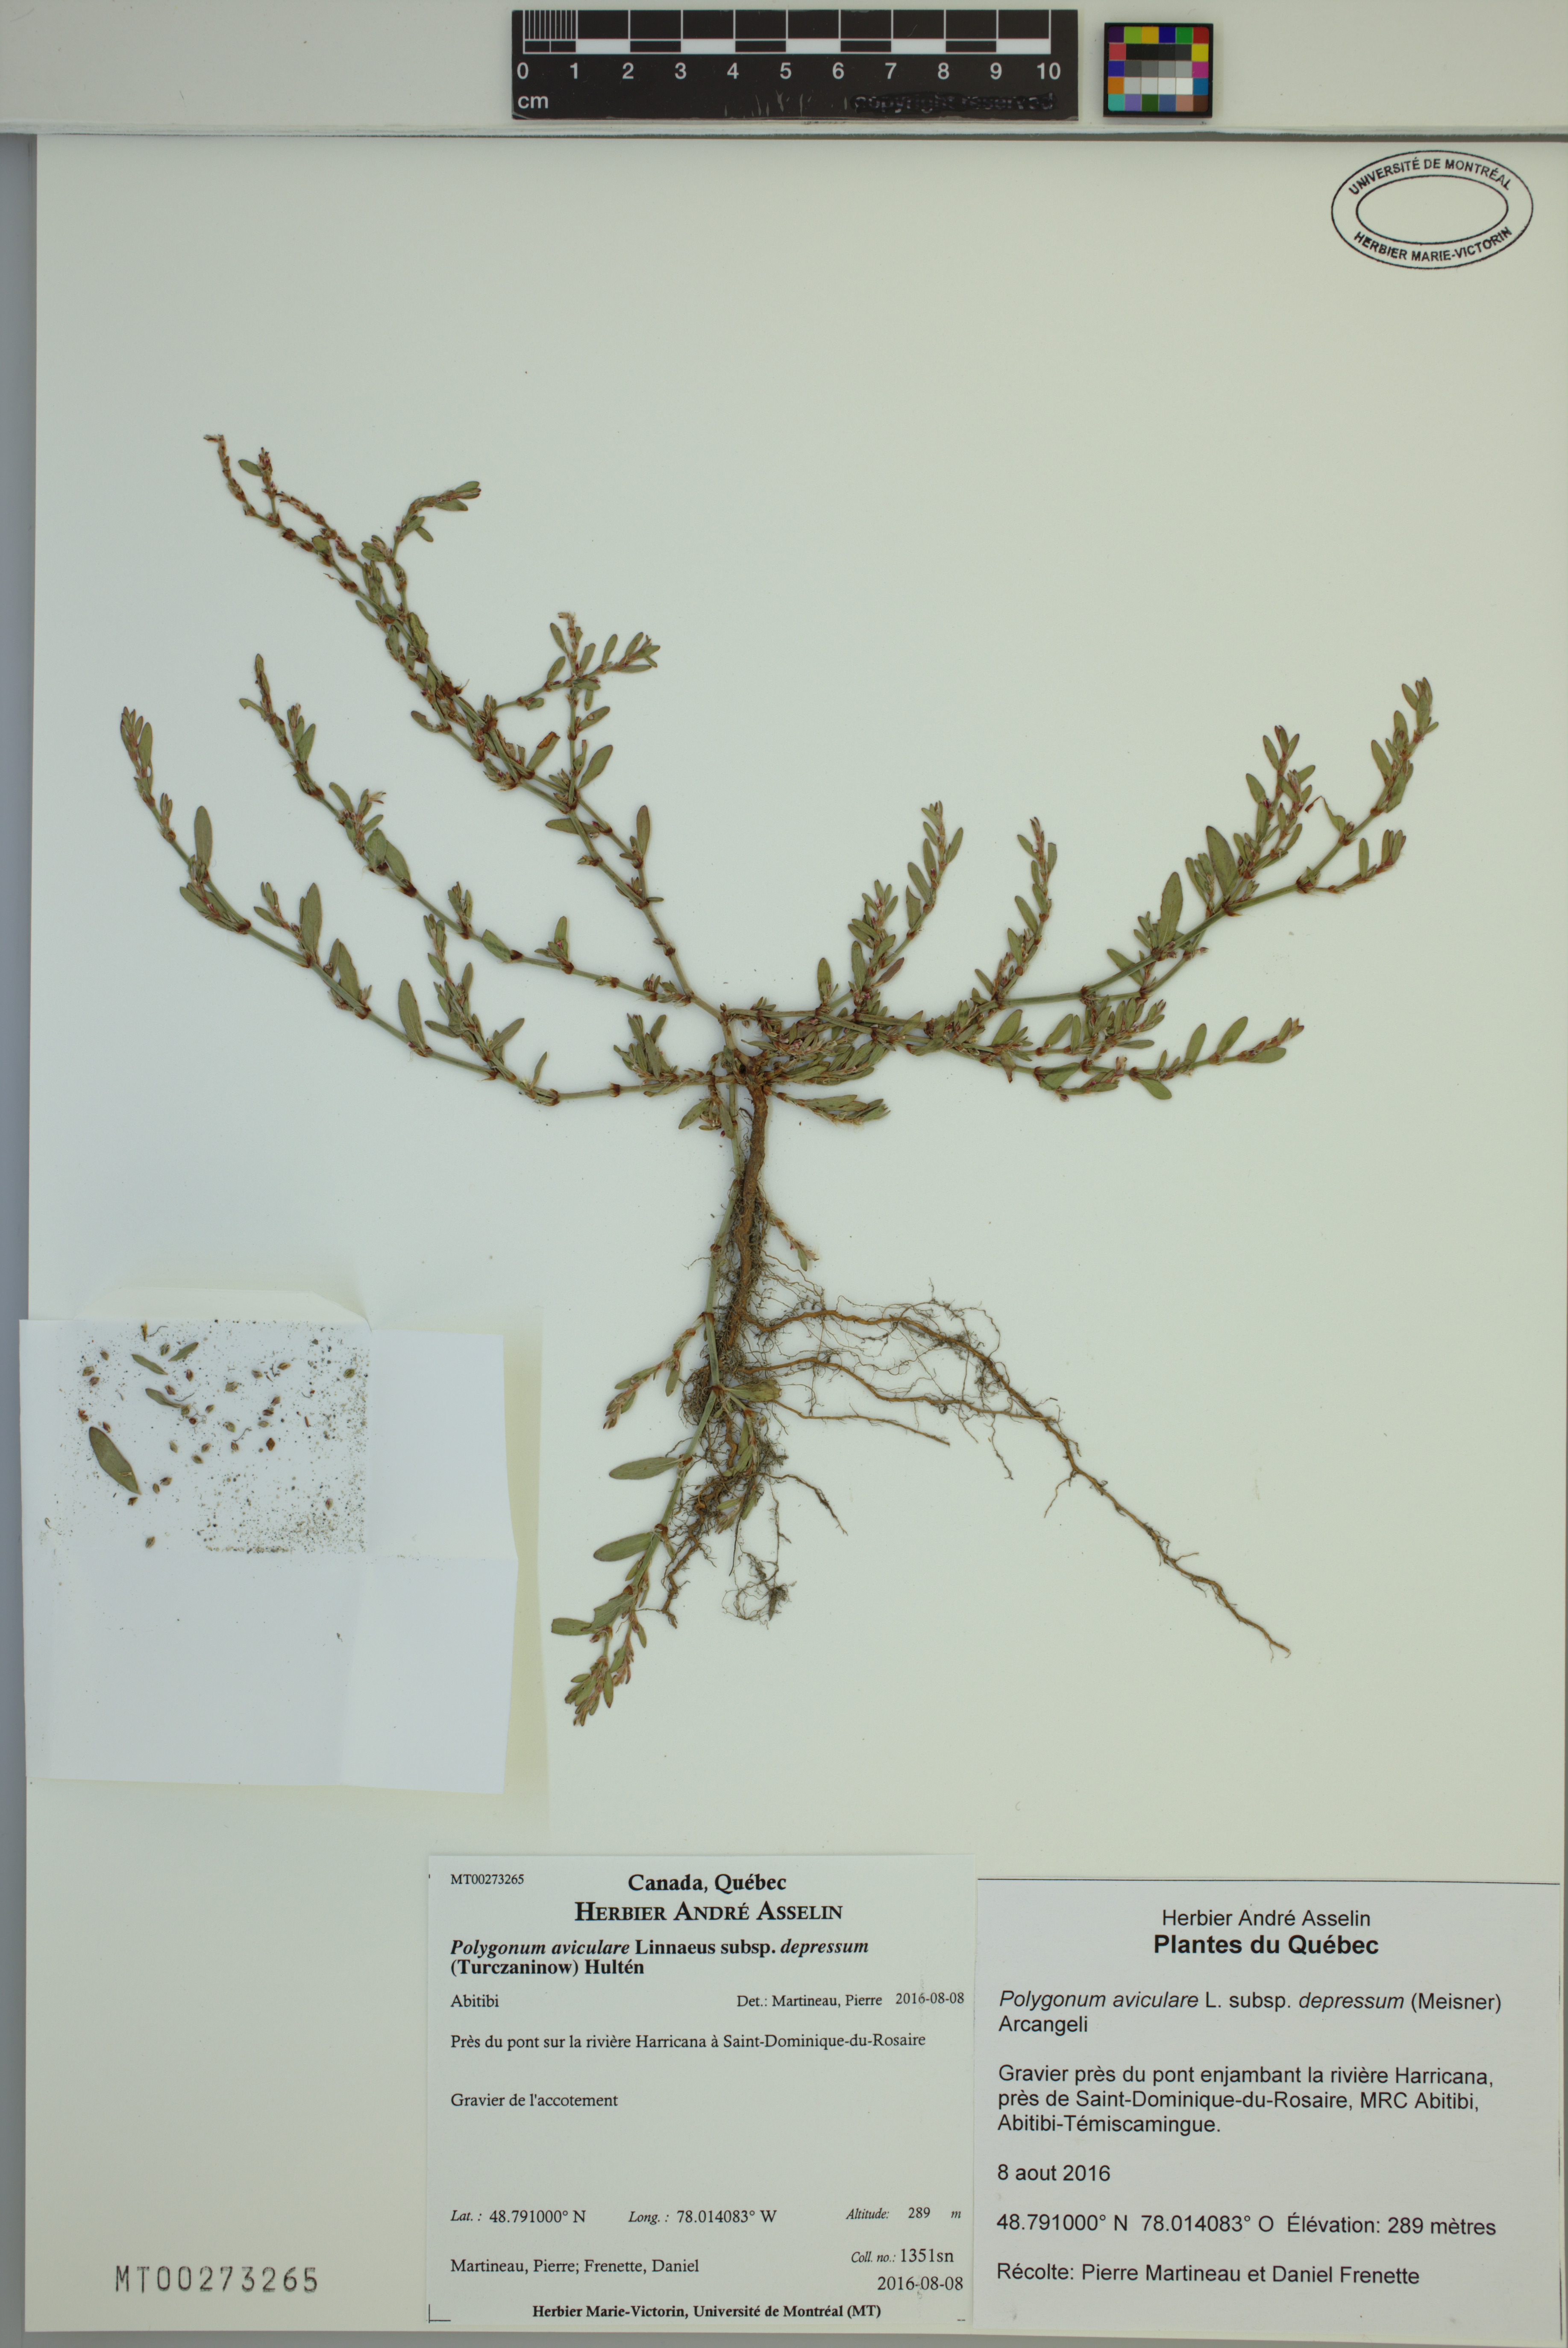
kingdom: Plantae
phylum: Tracheophyta
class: Magnoliopsida
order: Caryophyllales
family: Polygonaceae
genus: Polygonum
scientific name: Polygonum arenastrum
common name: Equal-leaved knotgrass
